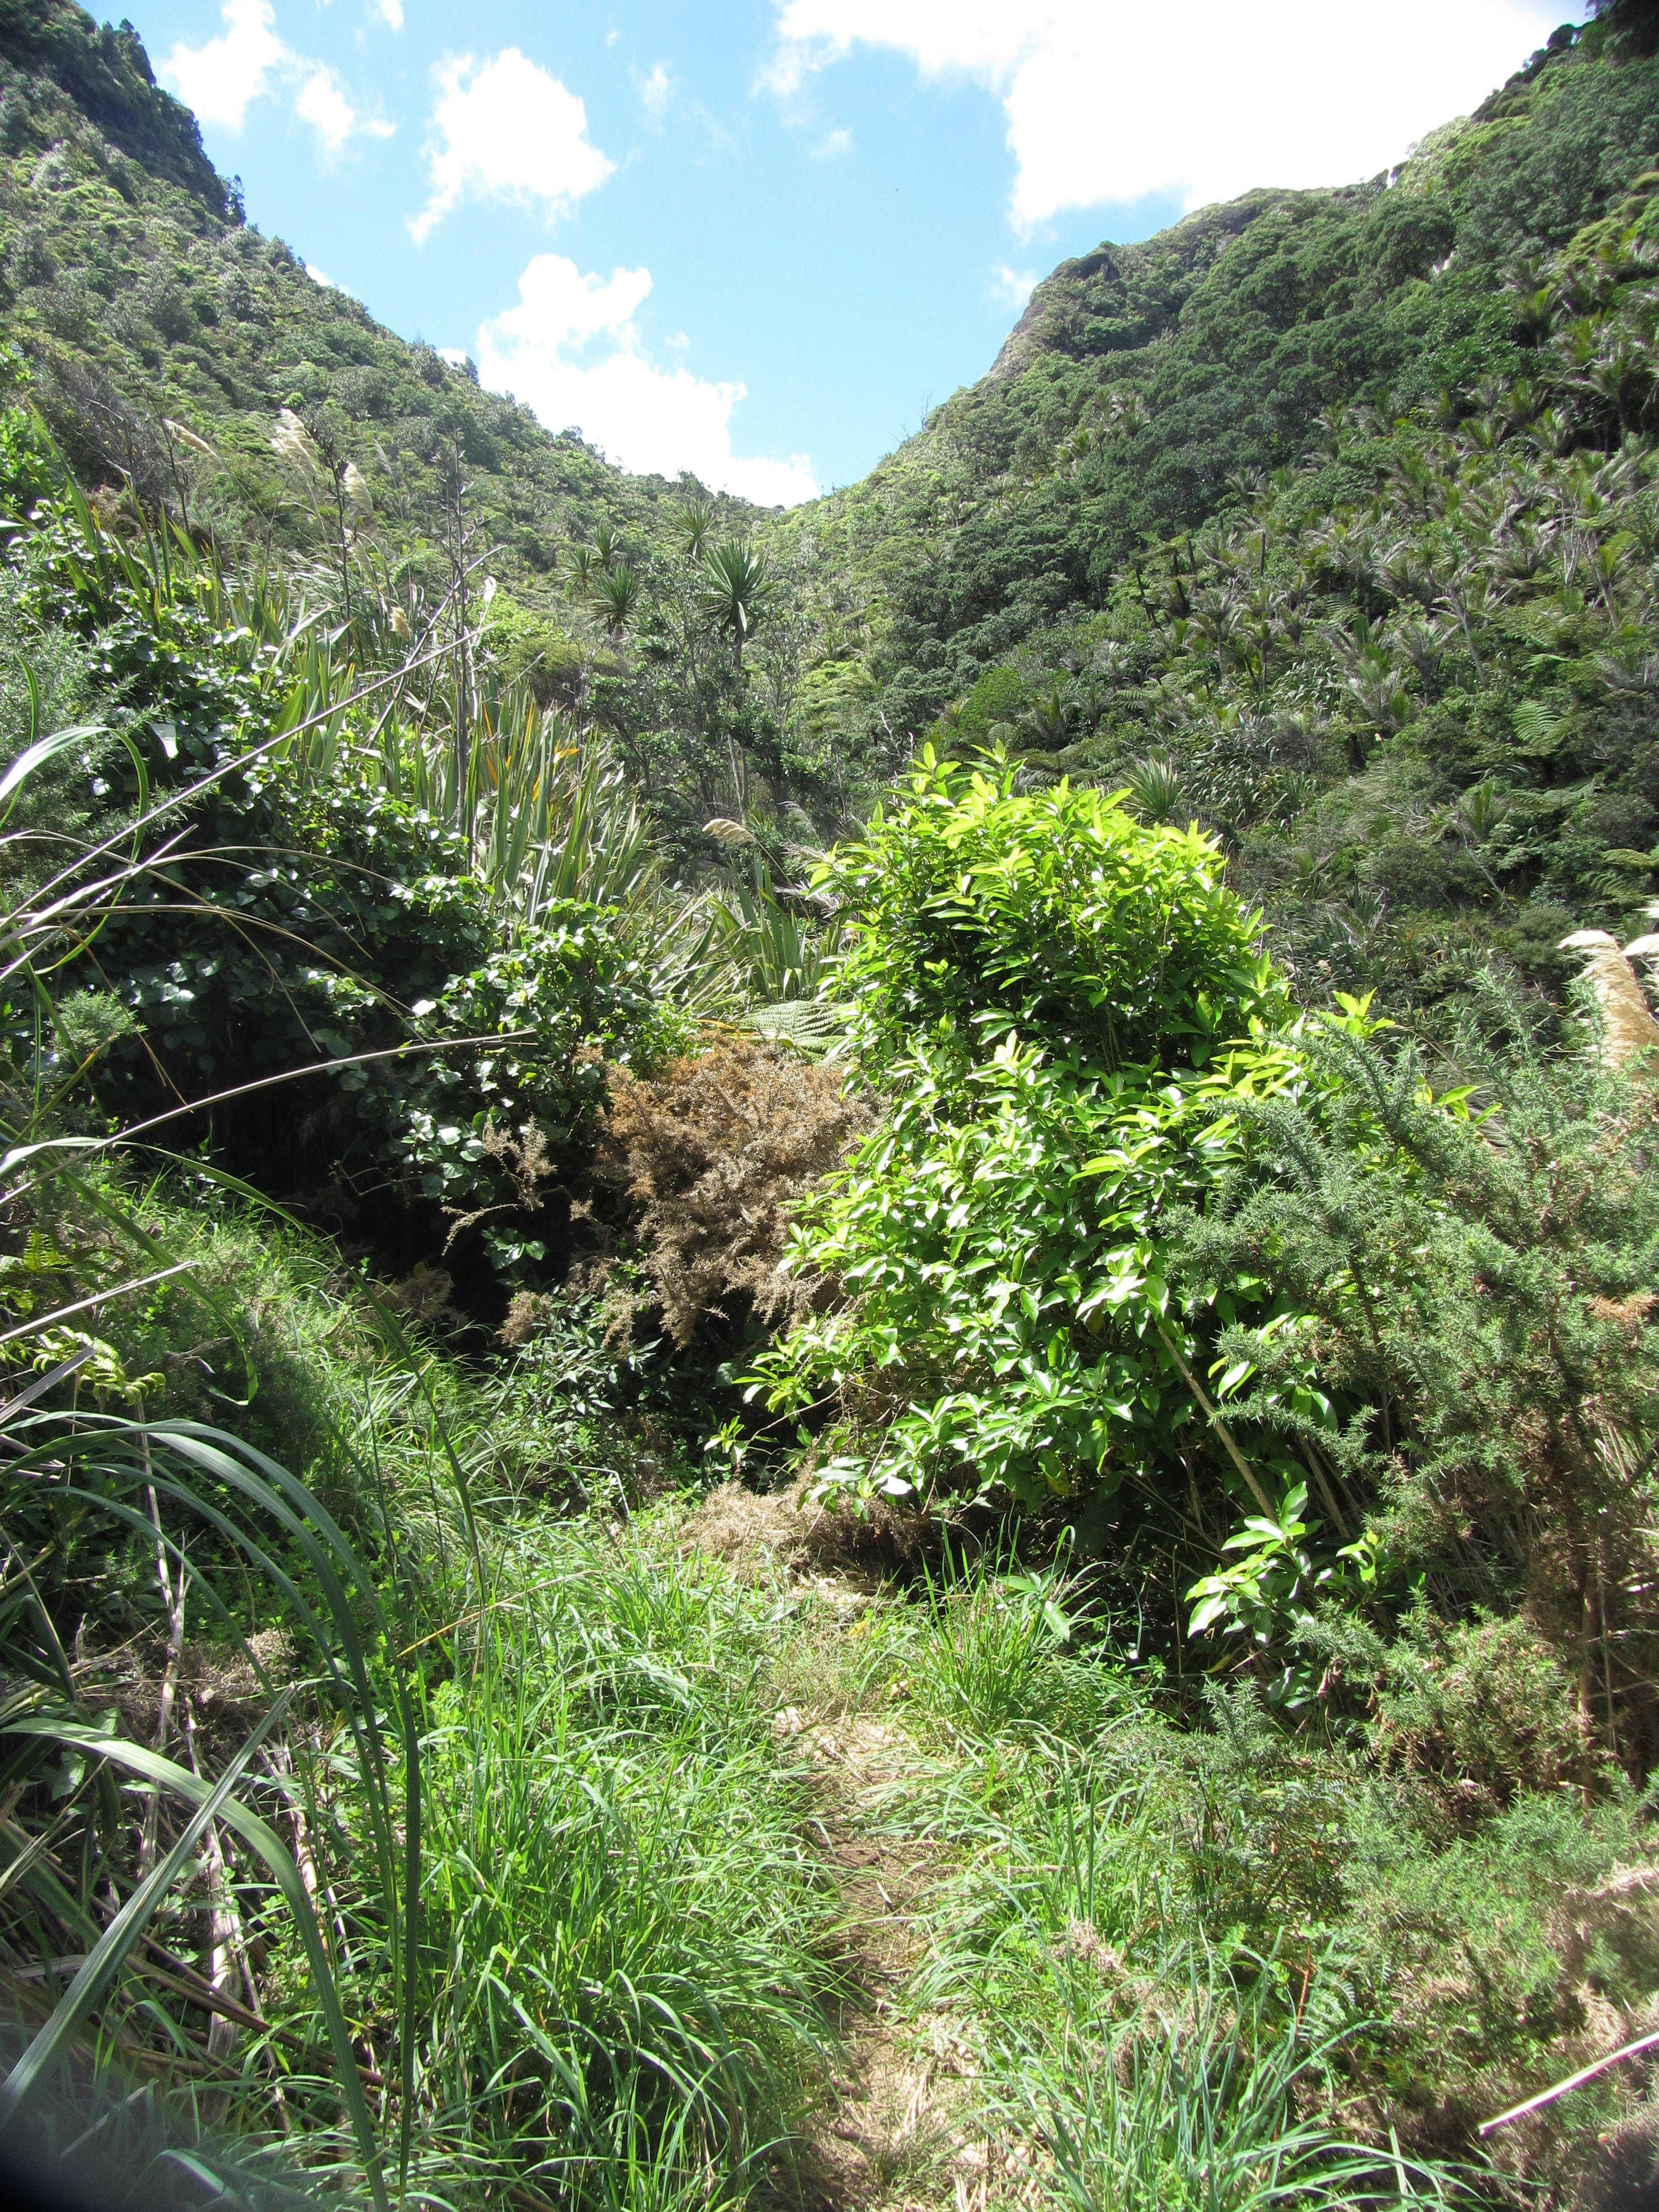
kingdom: Plantae
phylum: Tracheophyta
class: Liliopsida
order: Asparagales
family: Amaryllidaceae
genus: Nothoscordum
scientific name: Nothoscordum borbonicum
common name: Honeybells
